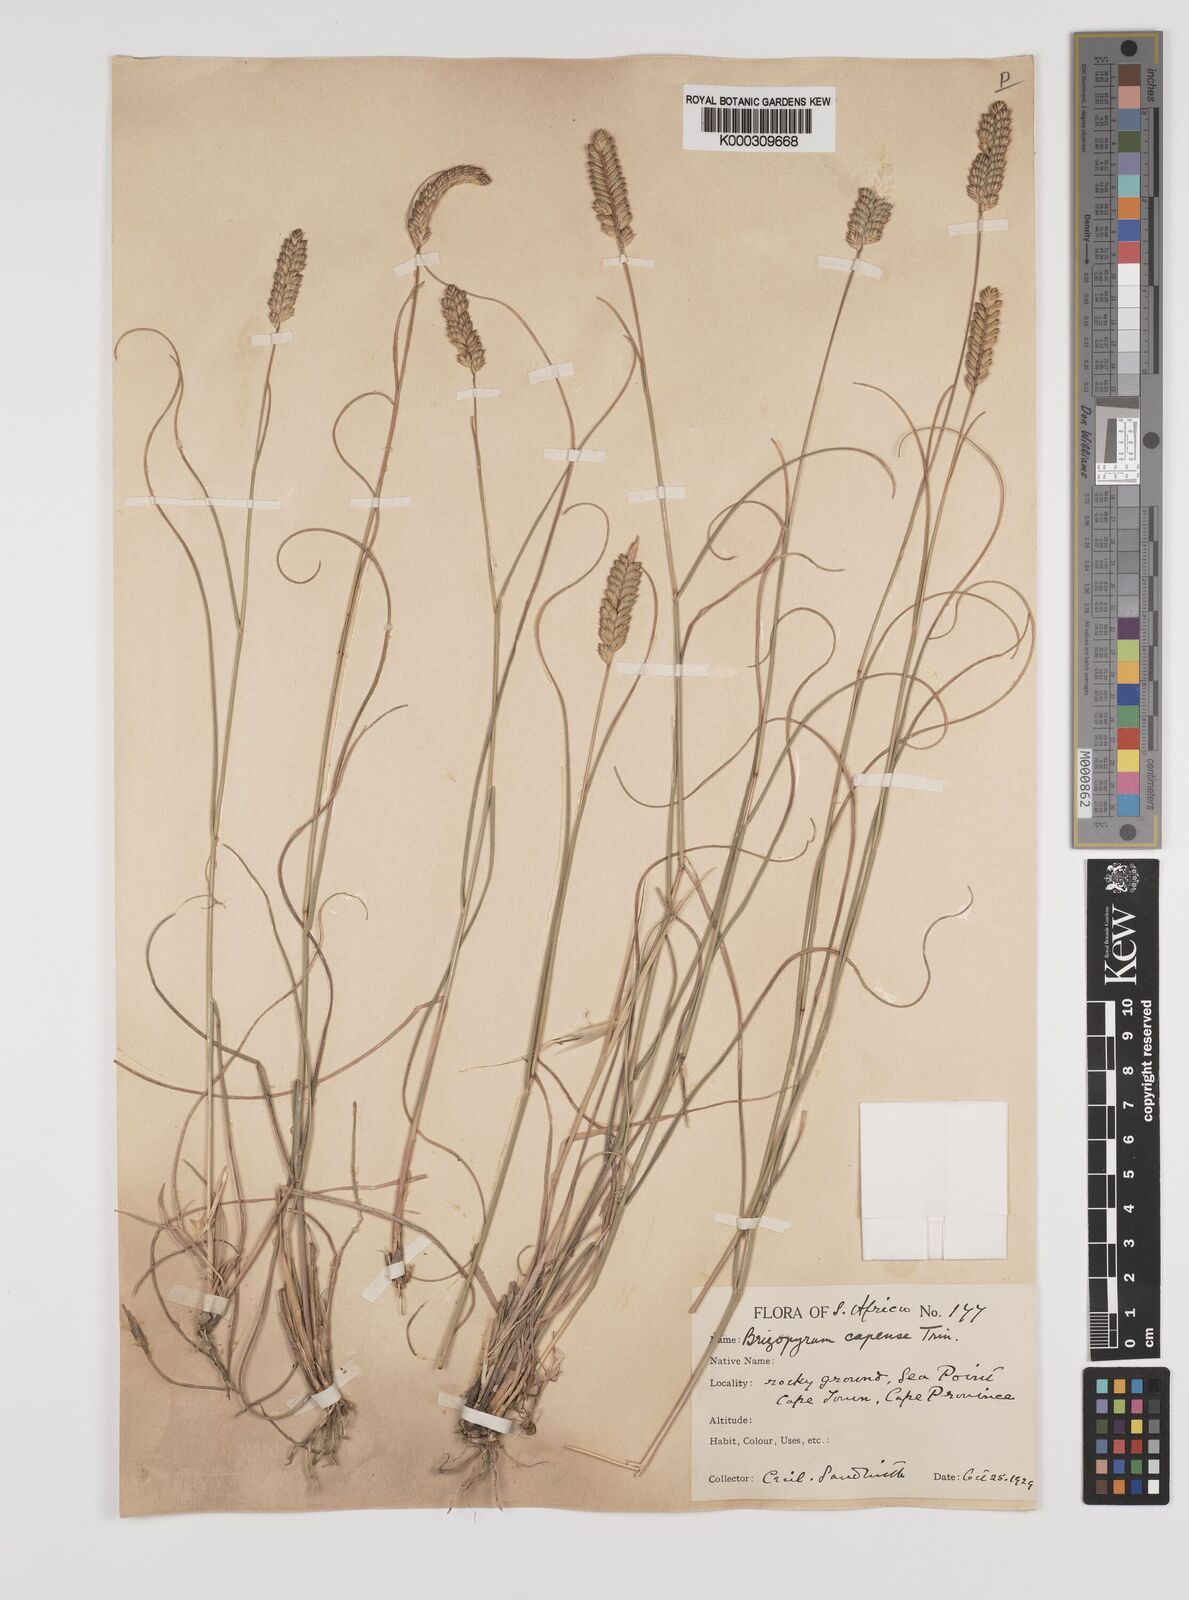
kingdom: Plantae
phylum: Tracheophyta
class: Liliopsida
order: Poales
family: Poaceae
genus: Tribolium
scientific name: Tribolium uniolae
